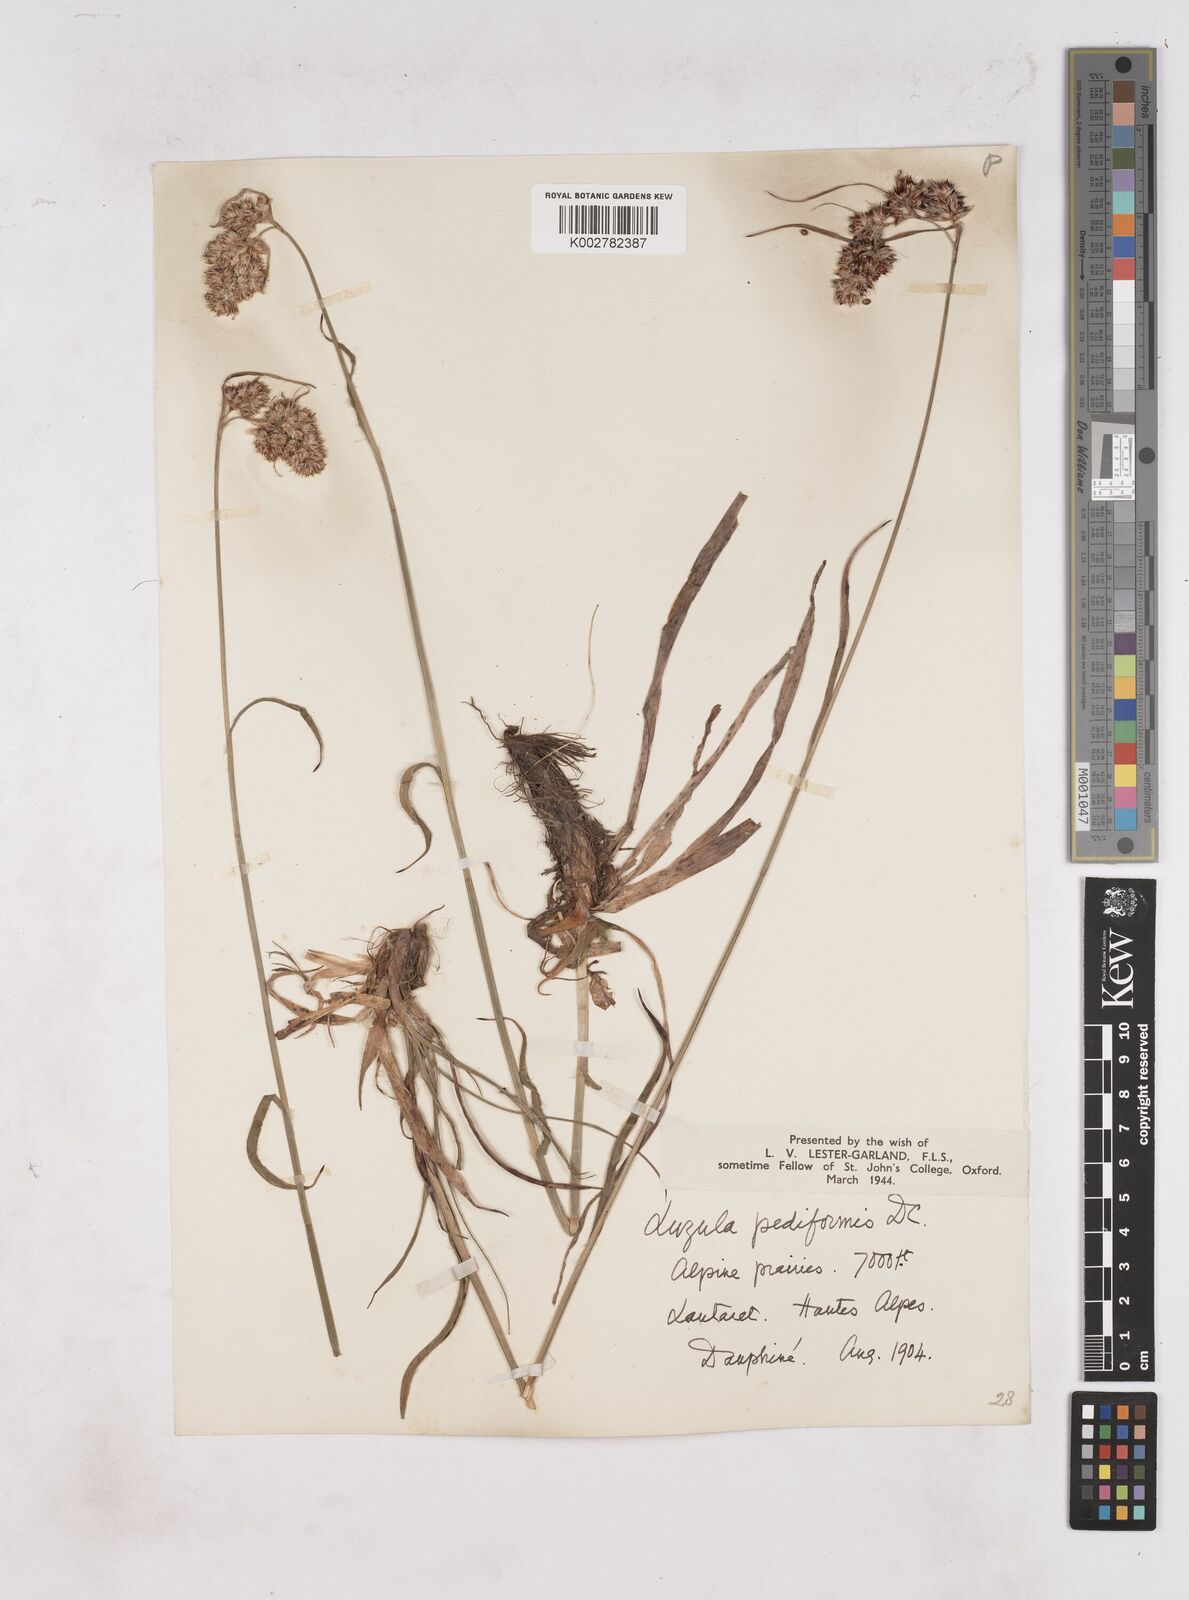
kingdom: Plantae
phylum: Tracheophyta
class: Liliopsida
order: Poales
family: Juncaceae
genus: Luzula
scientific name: Luzula pediformis
